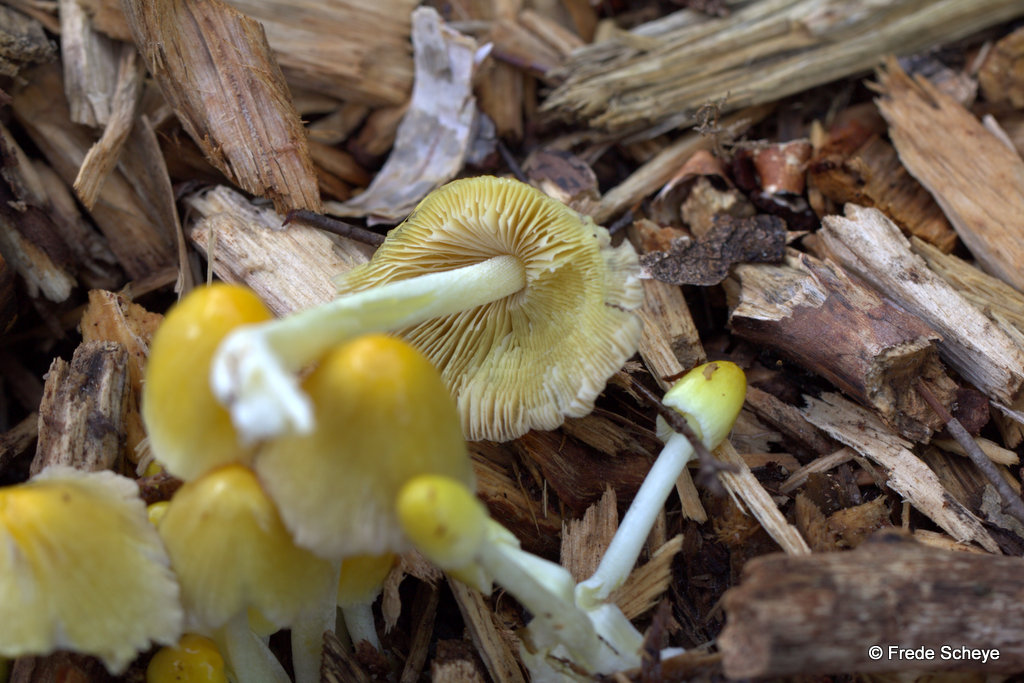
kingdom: Fungi
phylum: Basidiomycota
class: Agaricomycetes
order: Agaricales
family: Bolbitiaceae
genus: Bolbitius
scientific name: Bolbitius titubans
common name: almindelig gulhat
